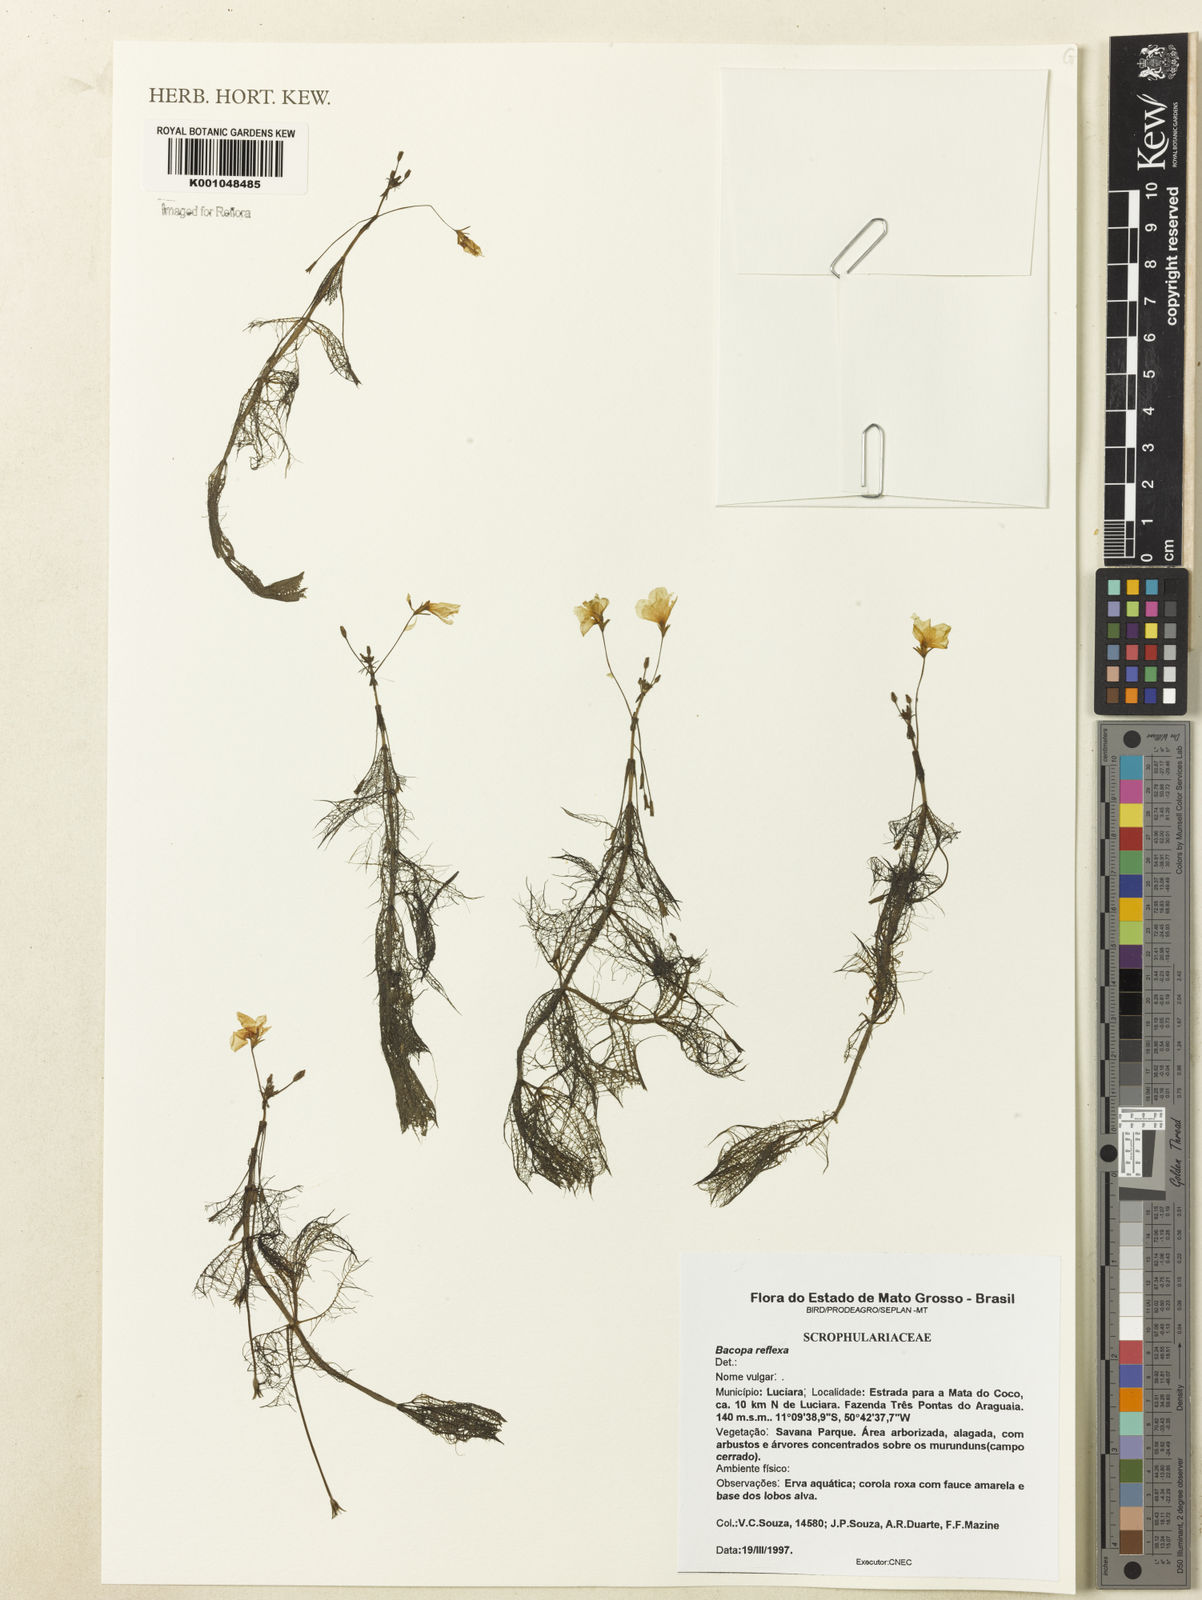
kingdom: Plantae
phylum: Tracheophyta
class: Magnoliopsida
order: Lamiales
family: Plantaginaceae
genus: Bacopa
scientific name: Bacopa reflexa
